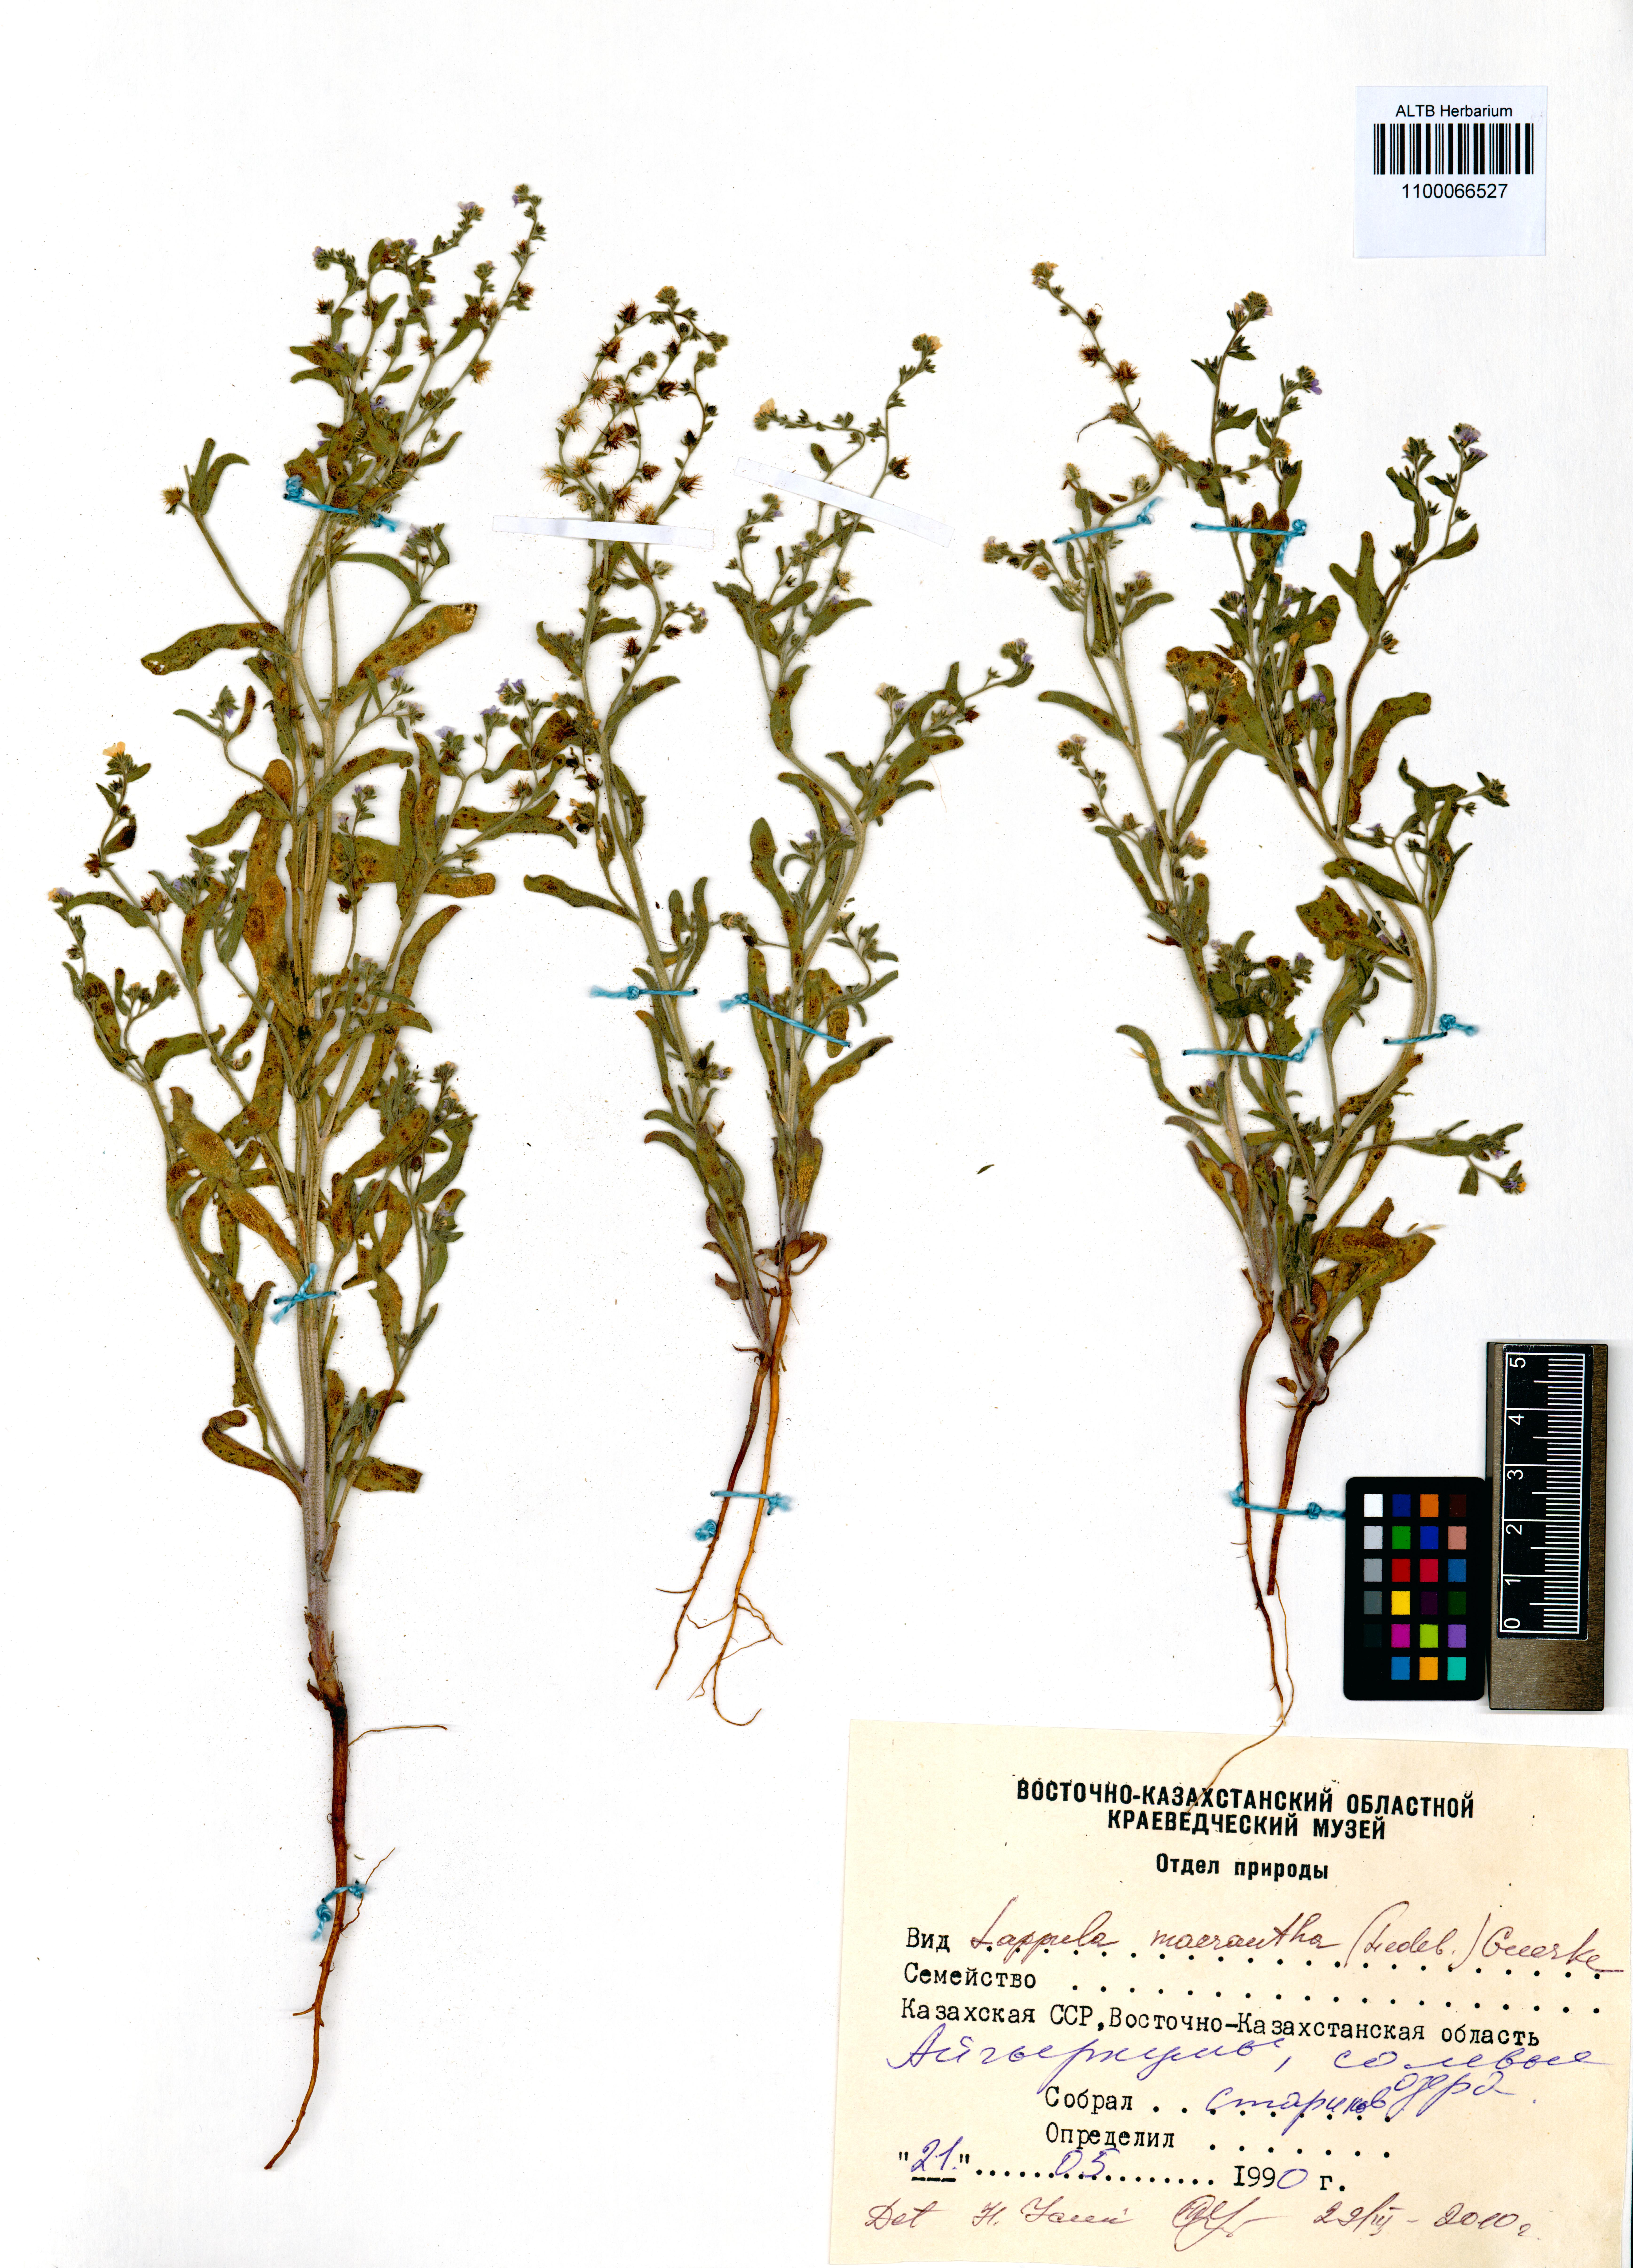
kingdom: Plantae
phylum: Tracheophyta
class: Magnoliopsida
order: Boraginales
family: Boraginaceae
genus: Lappula
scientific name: Lappula macrantha
